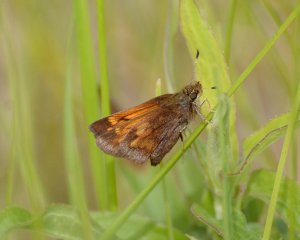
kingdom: Animalia
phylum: Arthropoda
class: Insecta
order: Lepidoptera
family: Hesperiidae
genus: Lon
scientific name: Lon hobomok
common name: Hobomok Skipper
